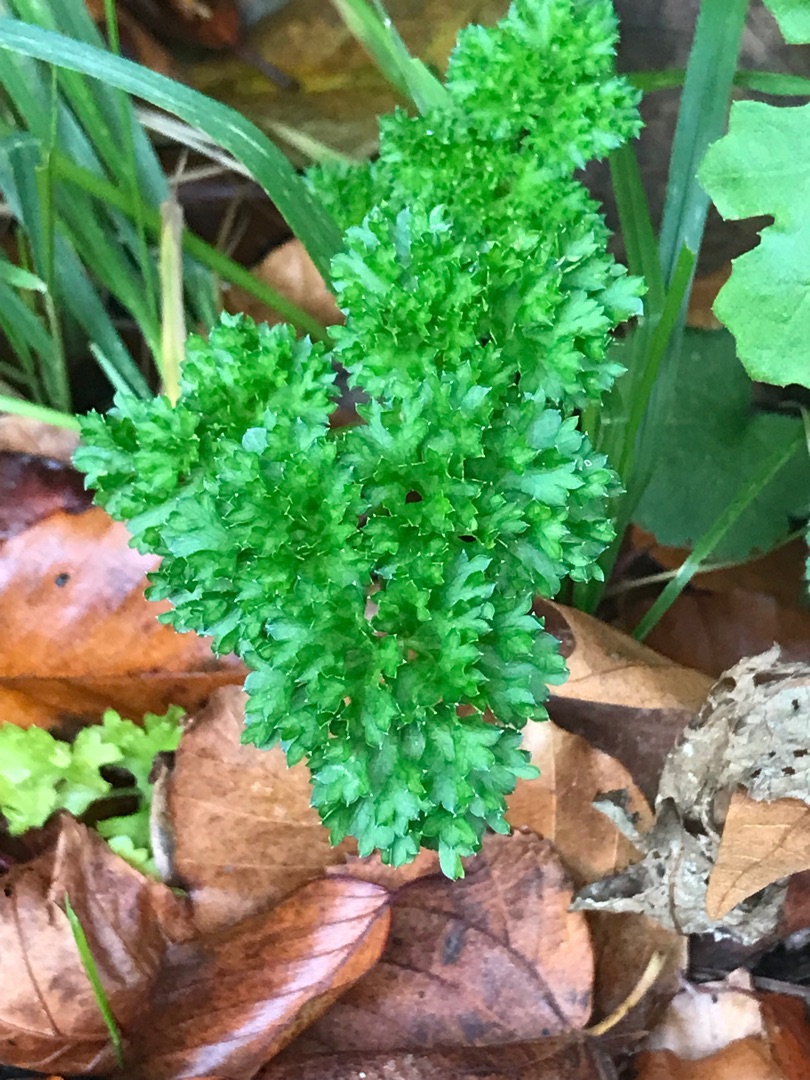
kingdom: Plantae
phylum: Tracheophyta
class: Magnoliopsida
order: Apiales
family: Apiaceae
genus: Petroselinum
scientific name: Petroselinum crispum
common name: Persille
